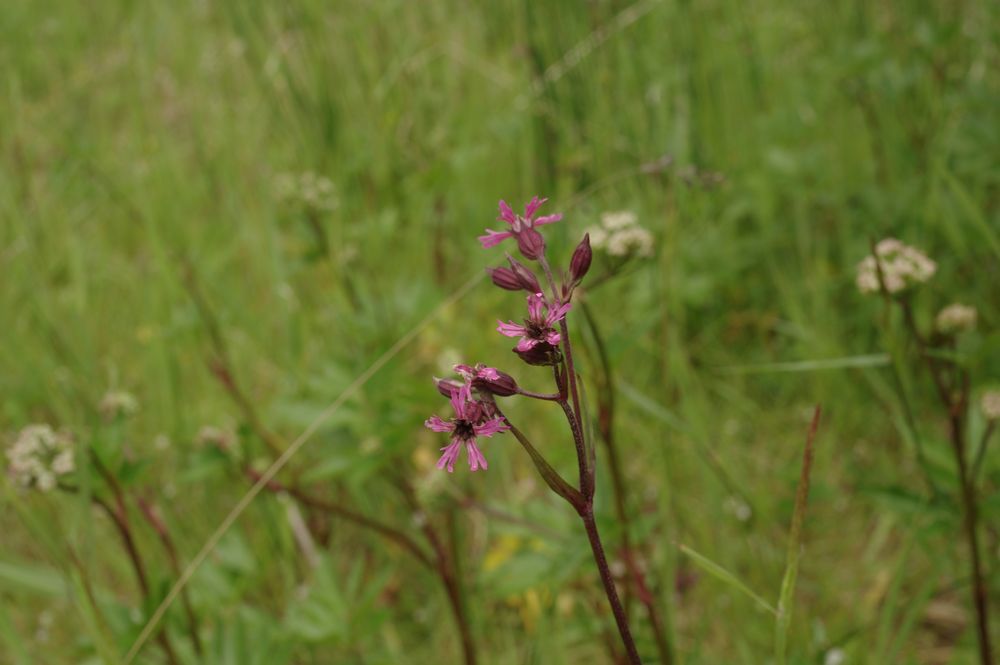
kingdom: Plantae
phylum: Tracheophyta
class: Magnoliopsida
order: Caryophyllales
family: Caryophyllaceae
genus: Silene
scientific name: Silene flos-cuculi
